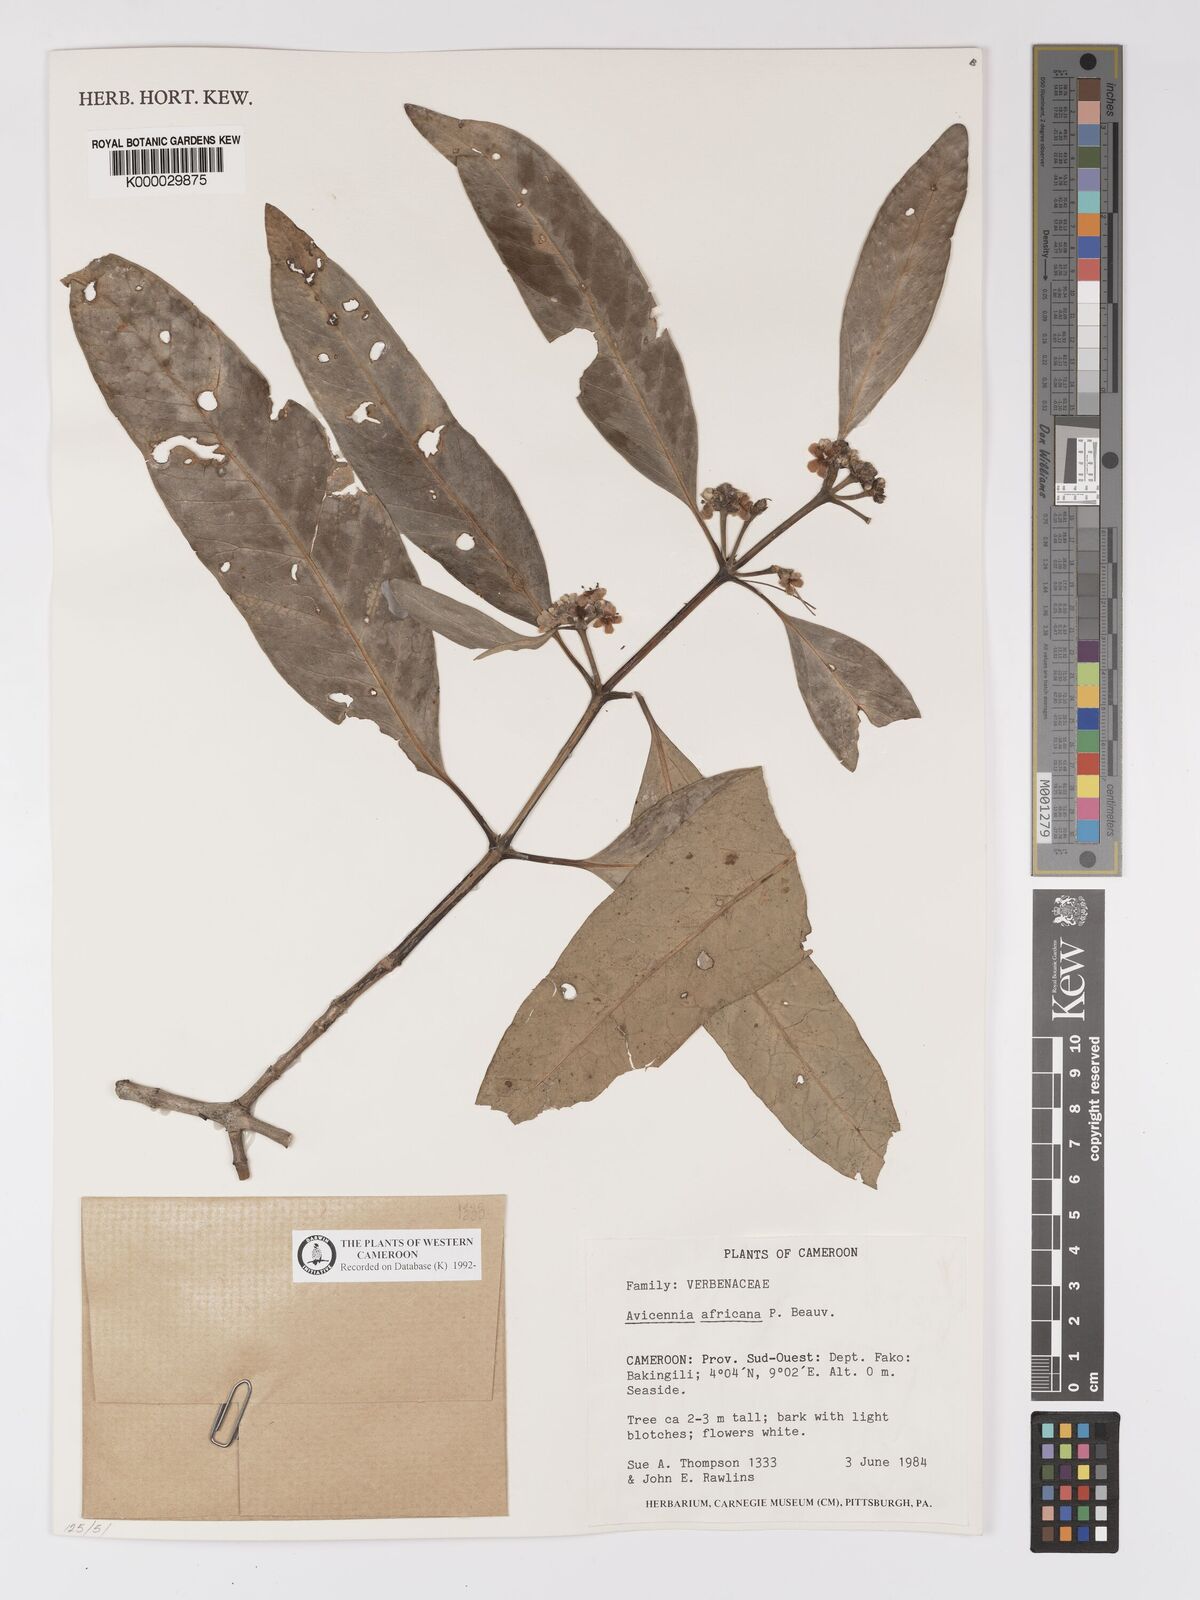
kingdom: Plantae
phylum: Tracheophyta
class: Magnoliopsida
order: Lamiales
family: Acanthaceae
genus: Avicennia
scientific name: Avicennia germinans
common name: Black mangrove
